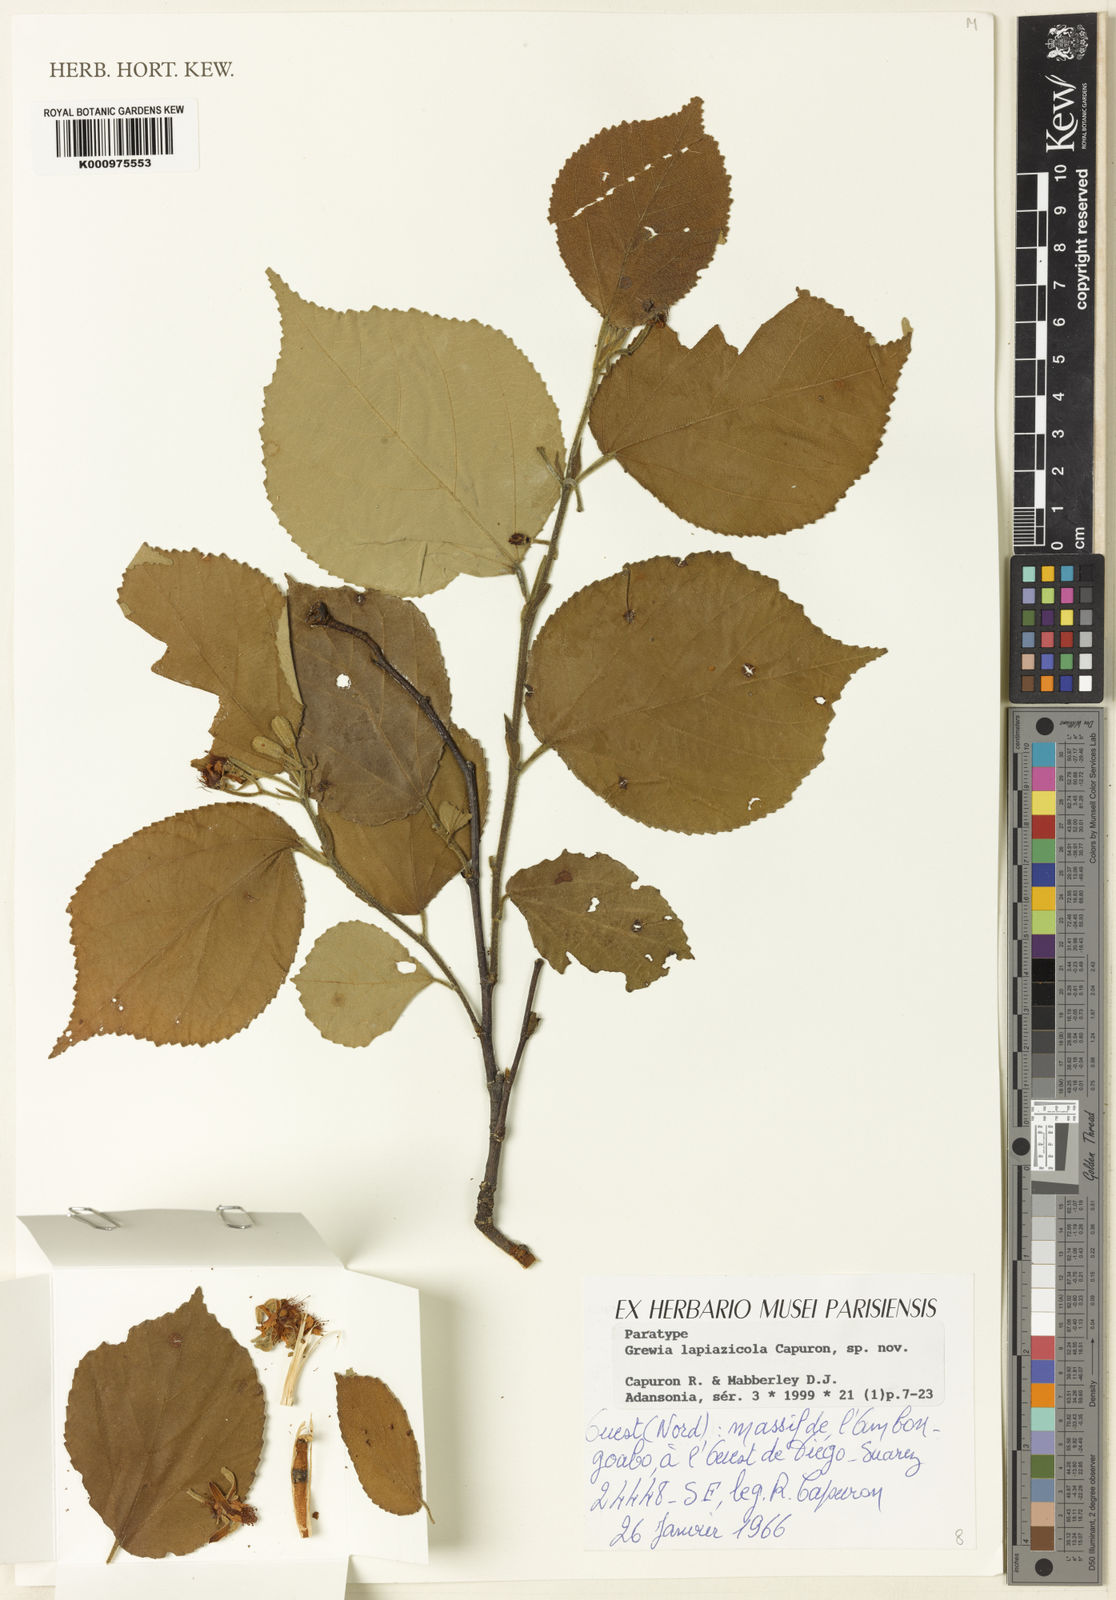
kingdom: Plantae
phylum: Tracheophyta
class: Magnoliopsida
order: Malvales
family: Malvaceae
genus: Grewia
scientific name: Grewia lapiazicola
